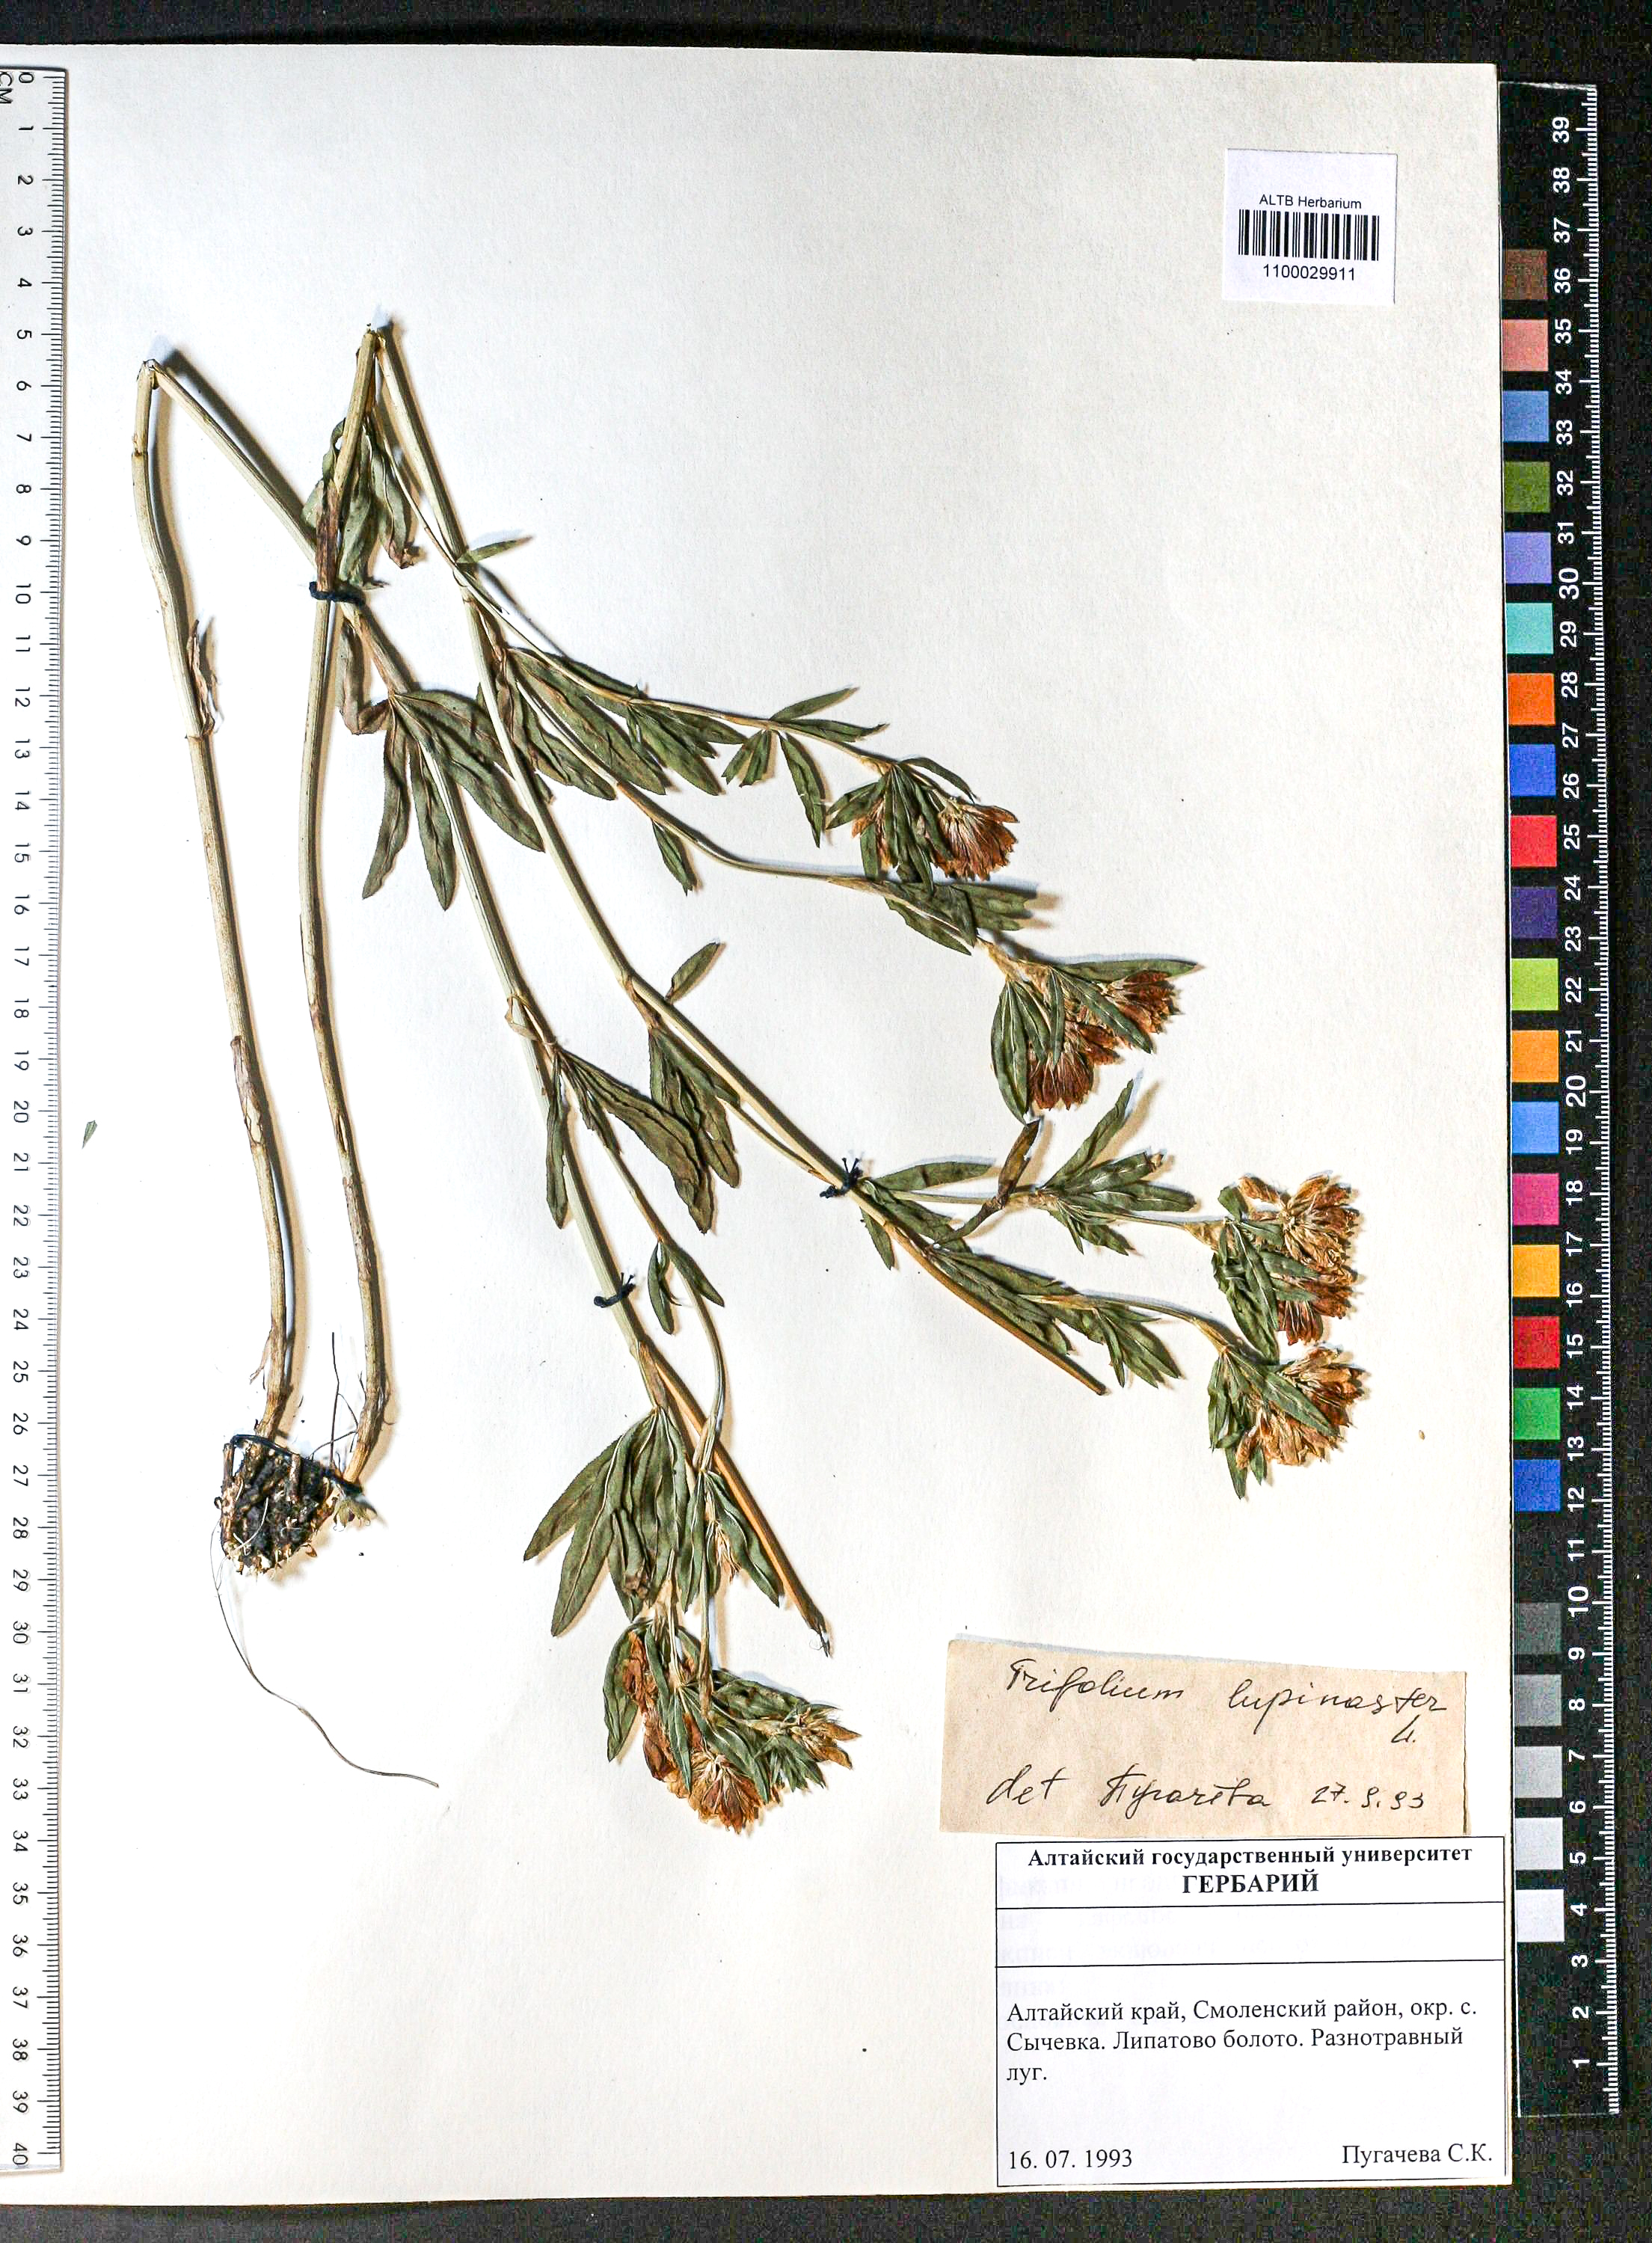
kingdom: Plantae
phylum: Tracheophyta
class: Magnoliopsida
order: Fabales
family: Fabaceae
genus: Trifolium
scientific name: Trifolium lupinaster
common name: Lupine clover
